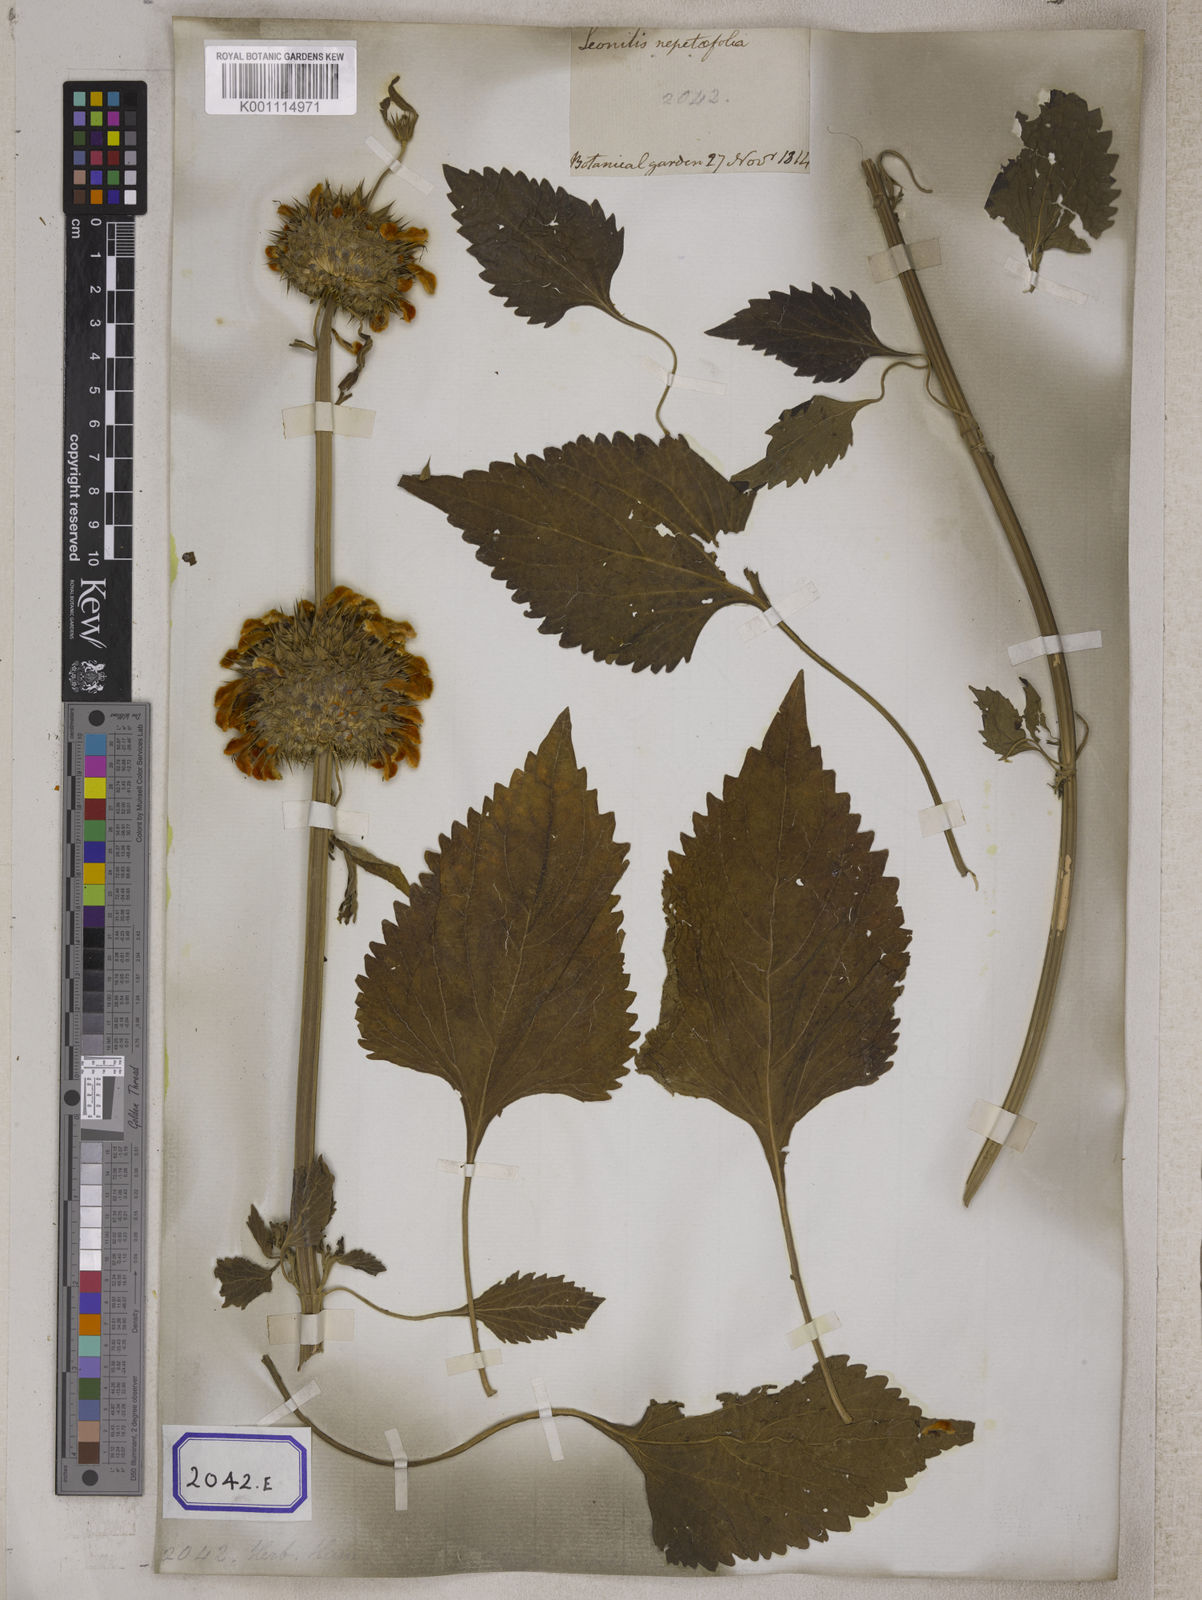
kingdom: Plantae
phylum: Tracheophyta
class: Magnoliopsida
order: Lamiales
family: Lamiaceae
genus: Leonotis
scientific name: Leonotis nepetifolia
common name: Christmas candlestick
